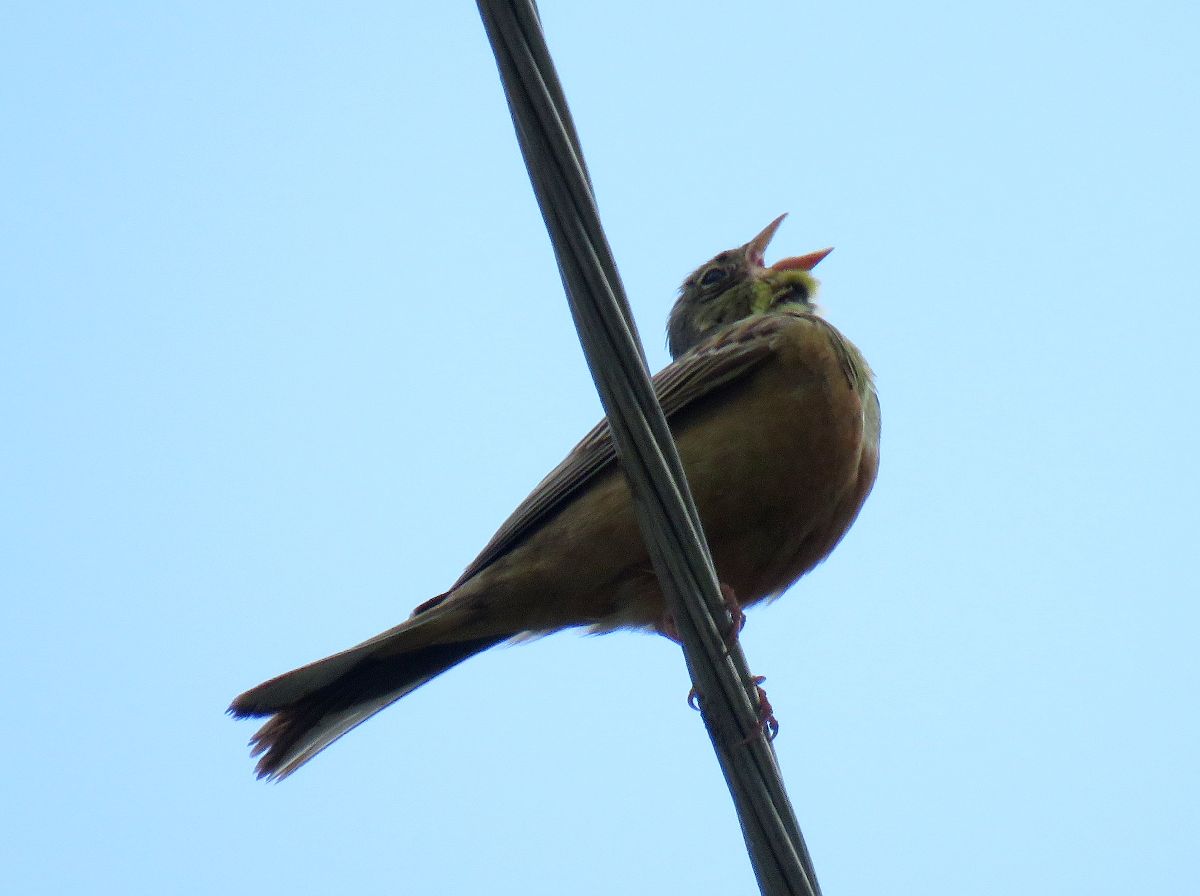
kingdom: Animalia
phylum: Chordata
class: Aves
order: Passeriformes
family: Emberizidae
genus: Emberiza
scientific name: Emberiza hortulana
